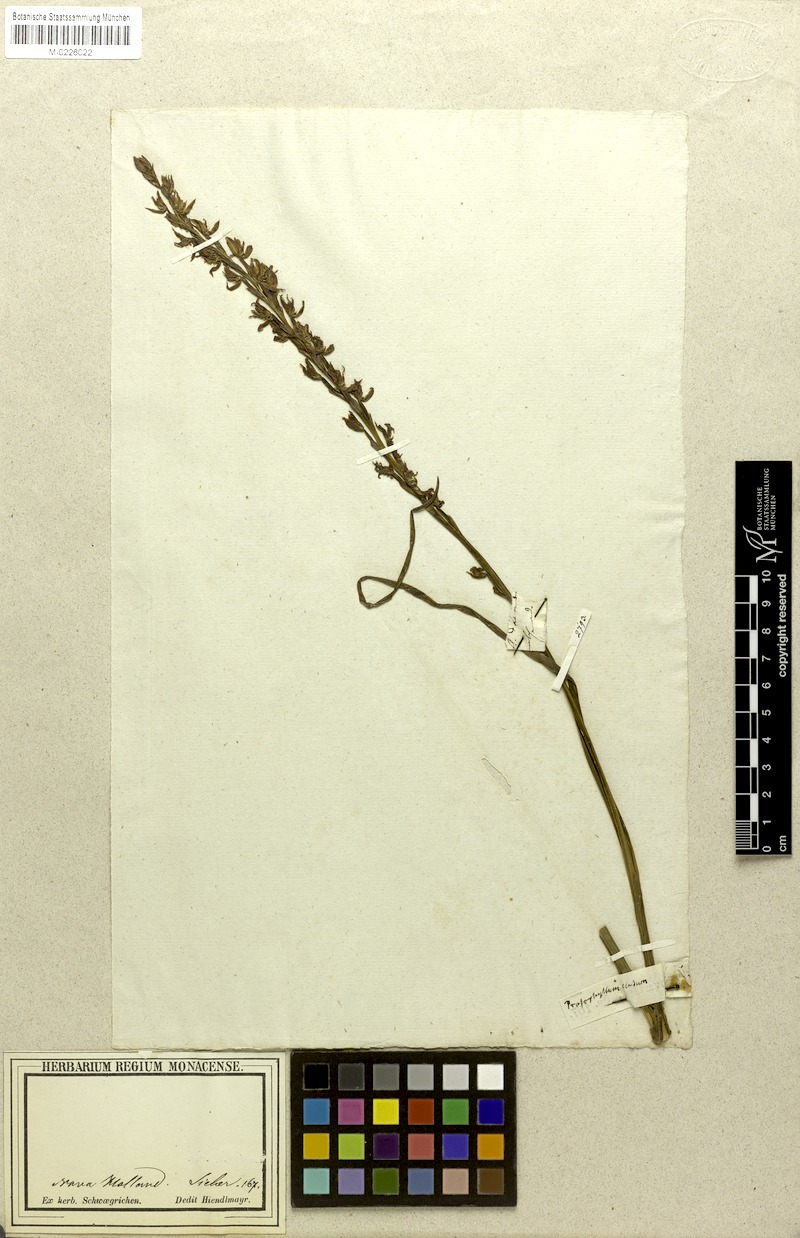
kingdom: Plantae
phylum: Tracheophyta
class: Liliopsida
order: Asparagales
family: Orchidaceae
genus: Prasophyllum
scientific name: Prasophyllum elatum
